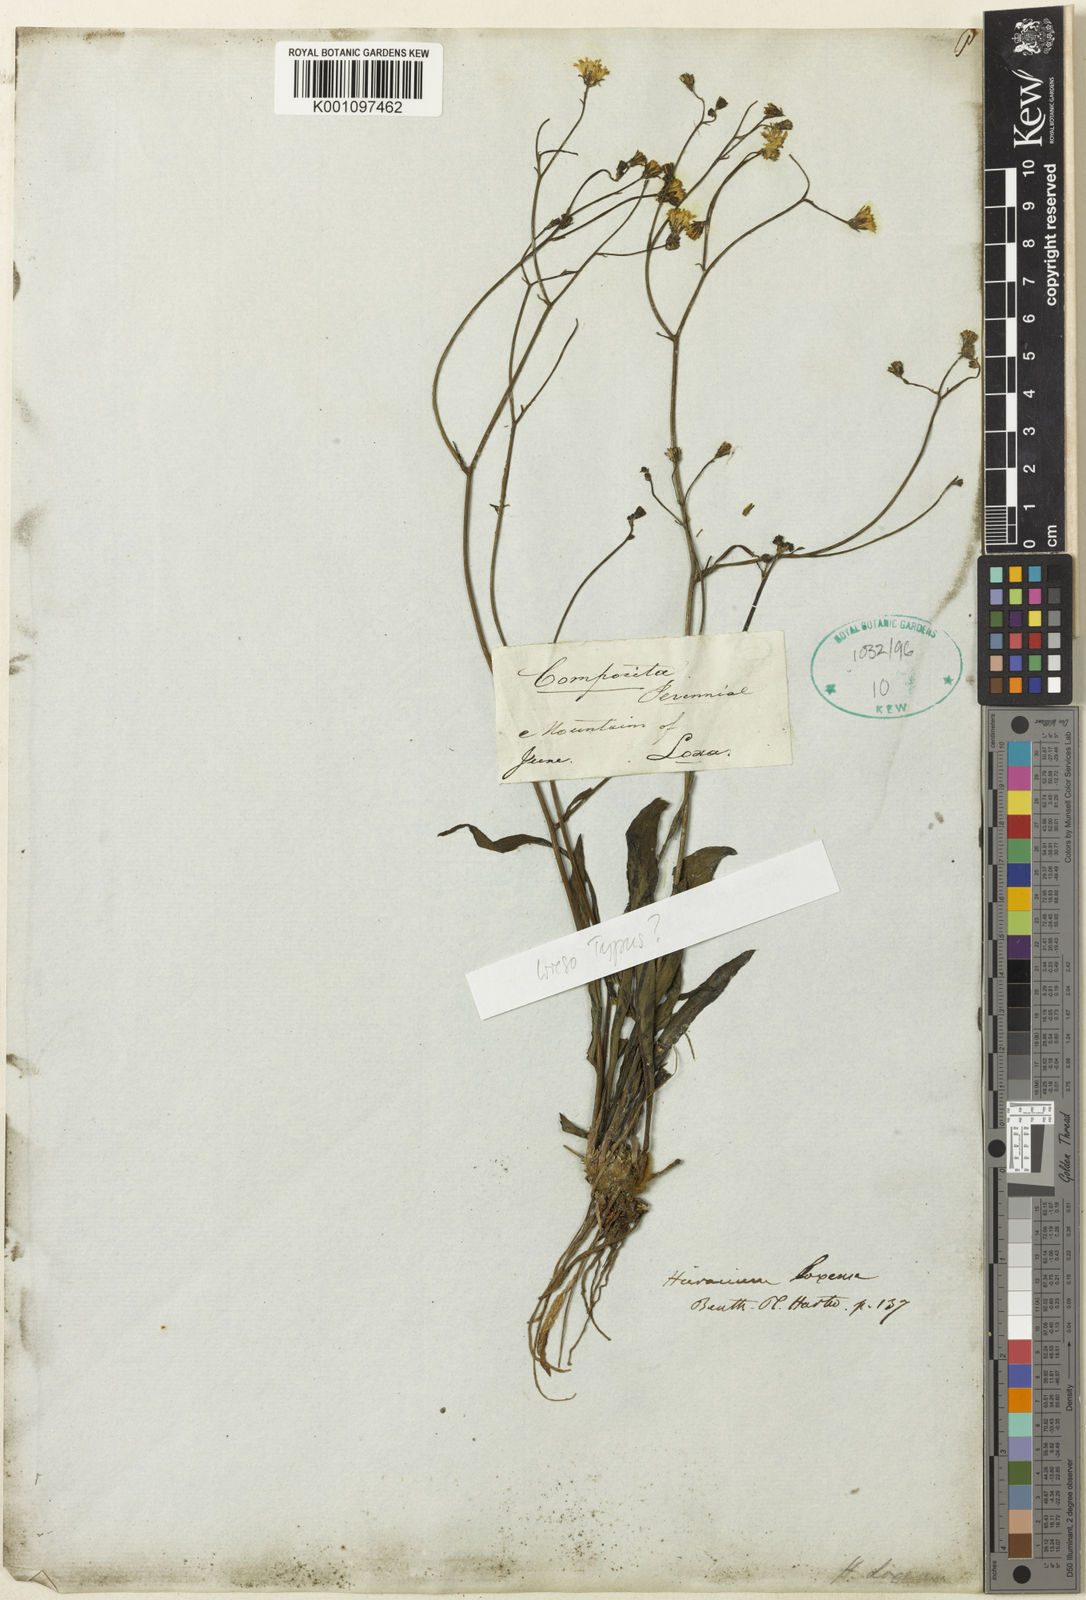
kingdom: Plantae
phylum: Tracheophyta
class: Magnoliopsida
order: Asterales
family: Asteraceae
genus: Hieracium
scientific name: Hieracium lagopus
